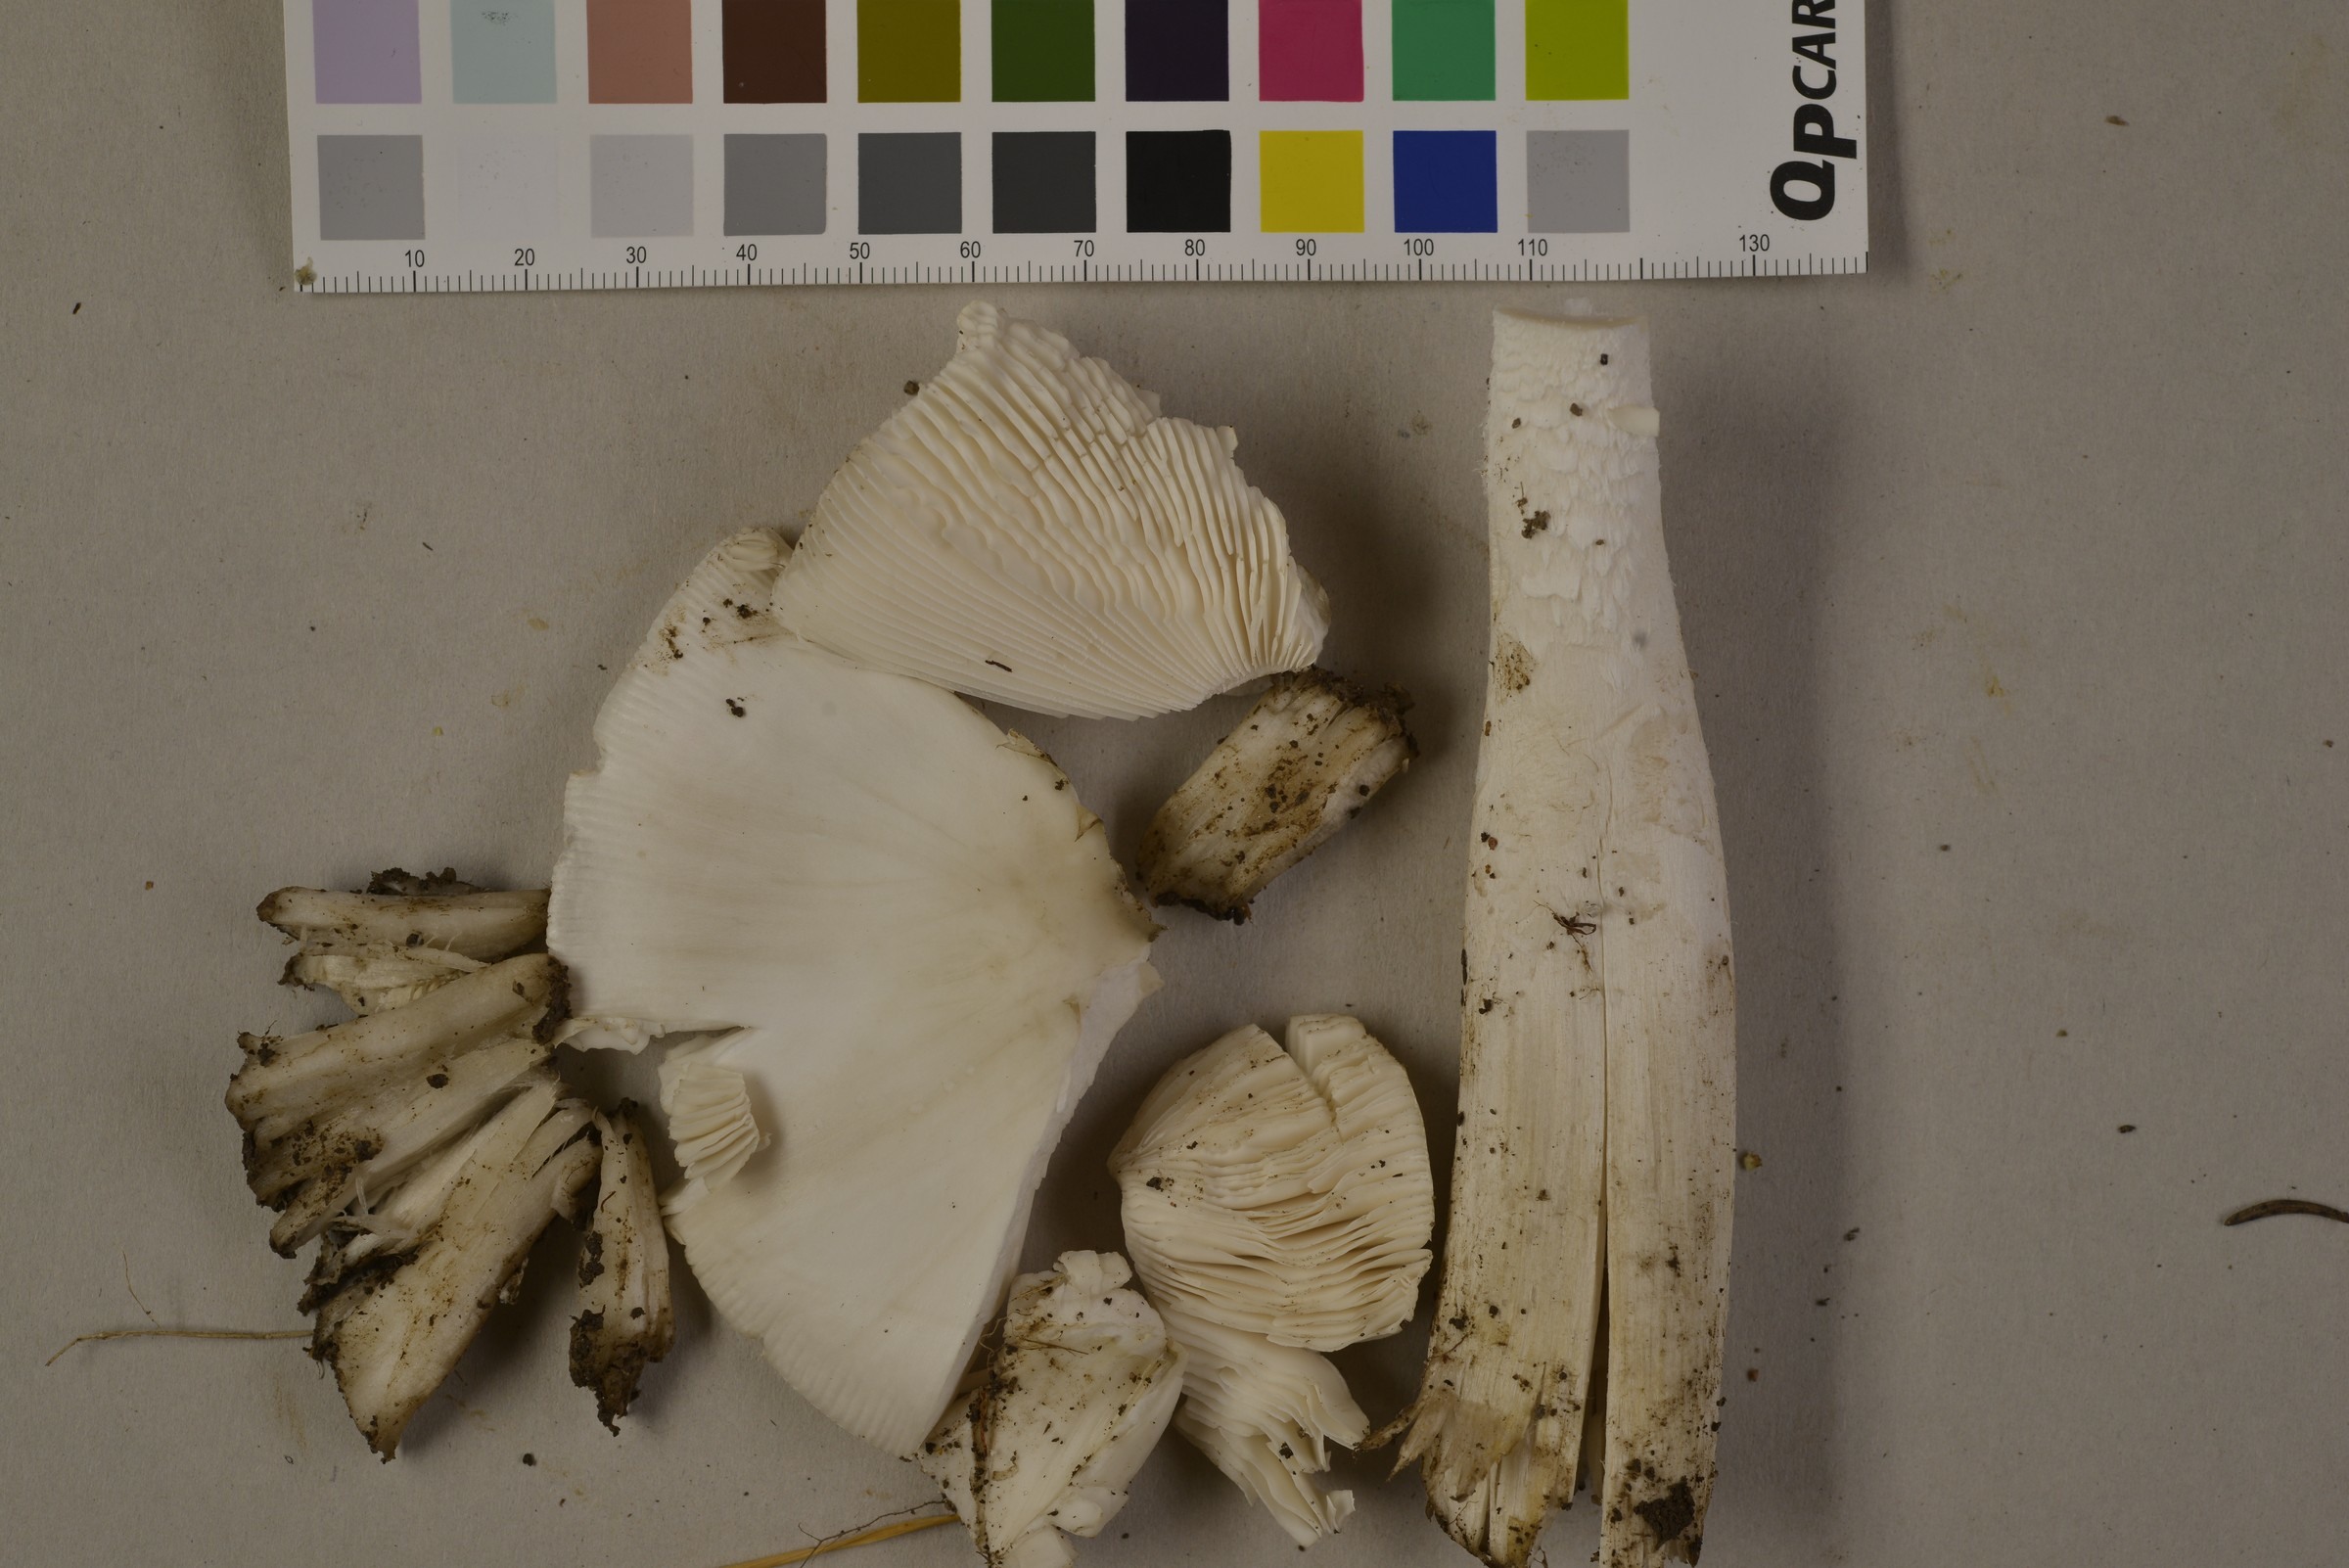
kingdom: Fungi
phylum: Basidiomycota
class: Agaricomycetes
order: Agaricales
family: Amanitaceae
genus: Amanita
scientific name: Amanita arctica
